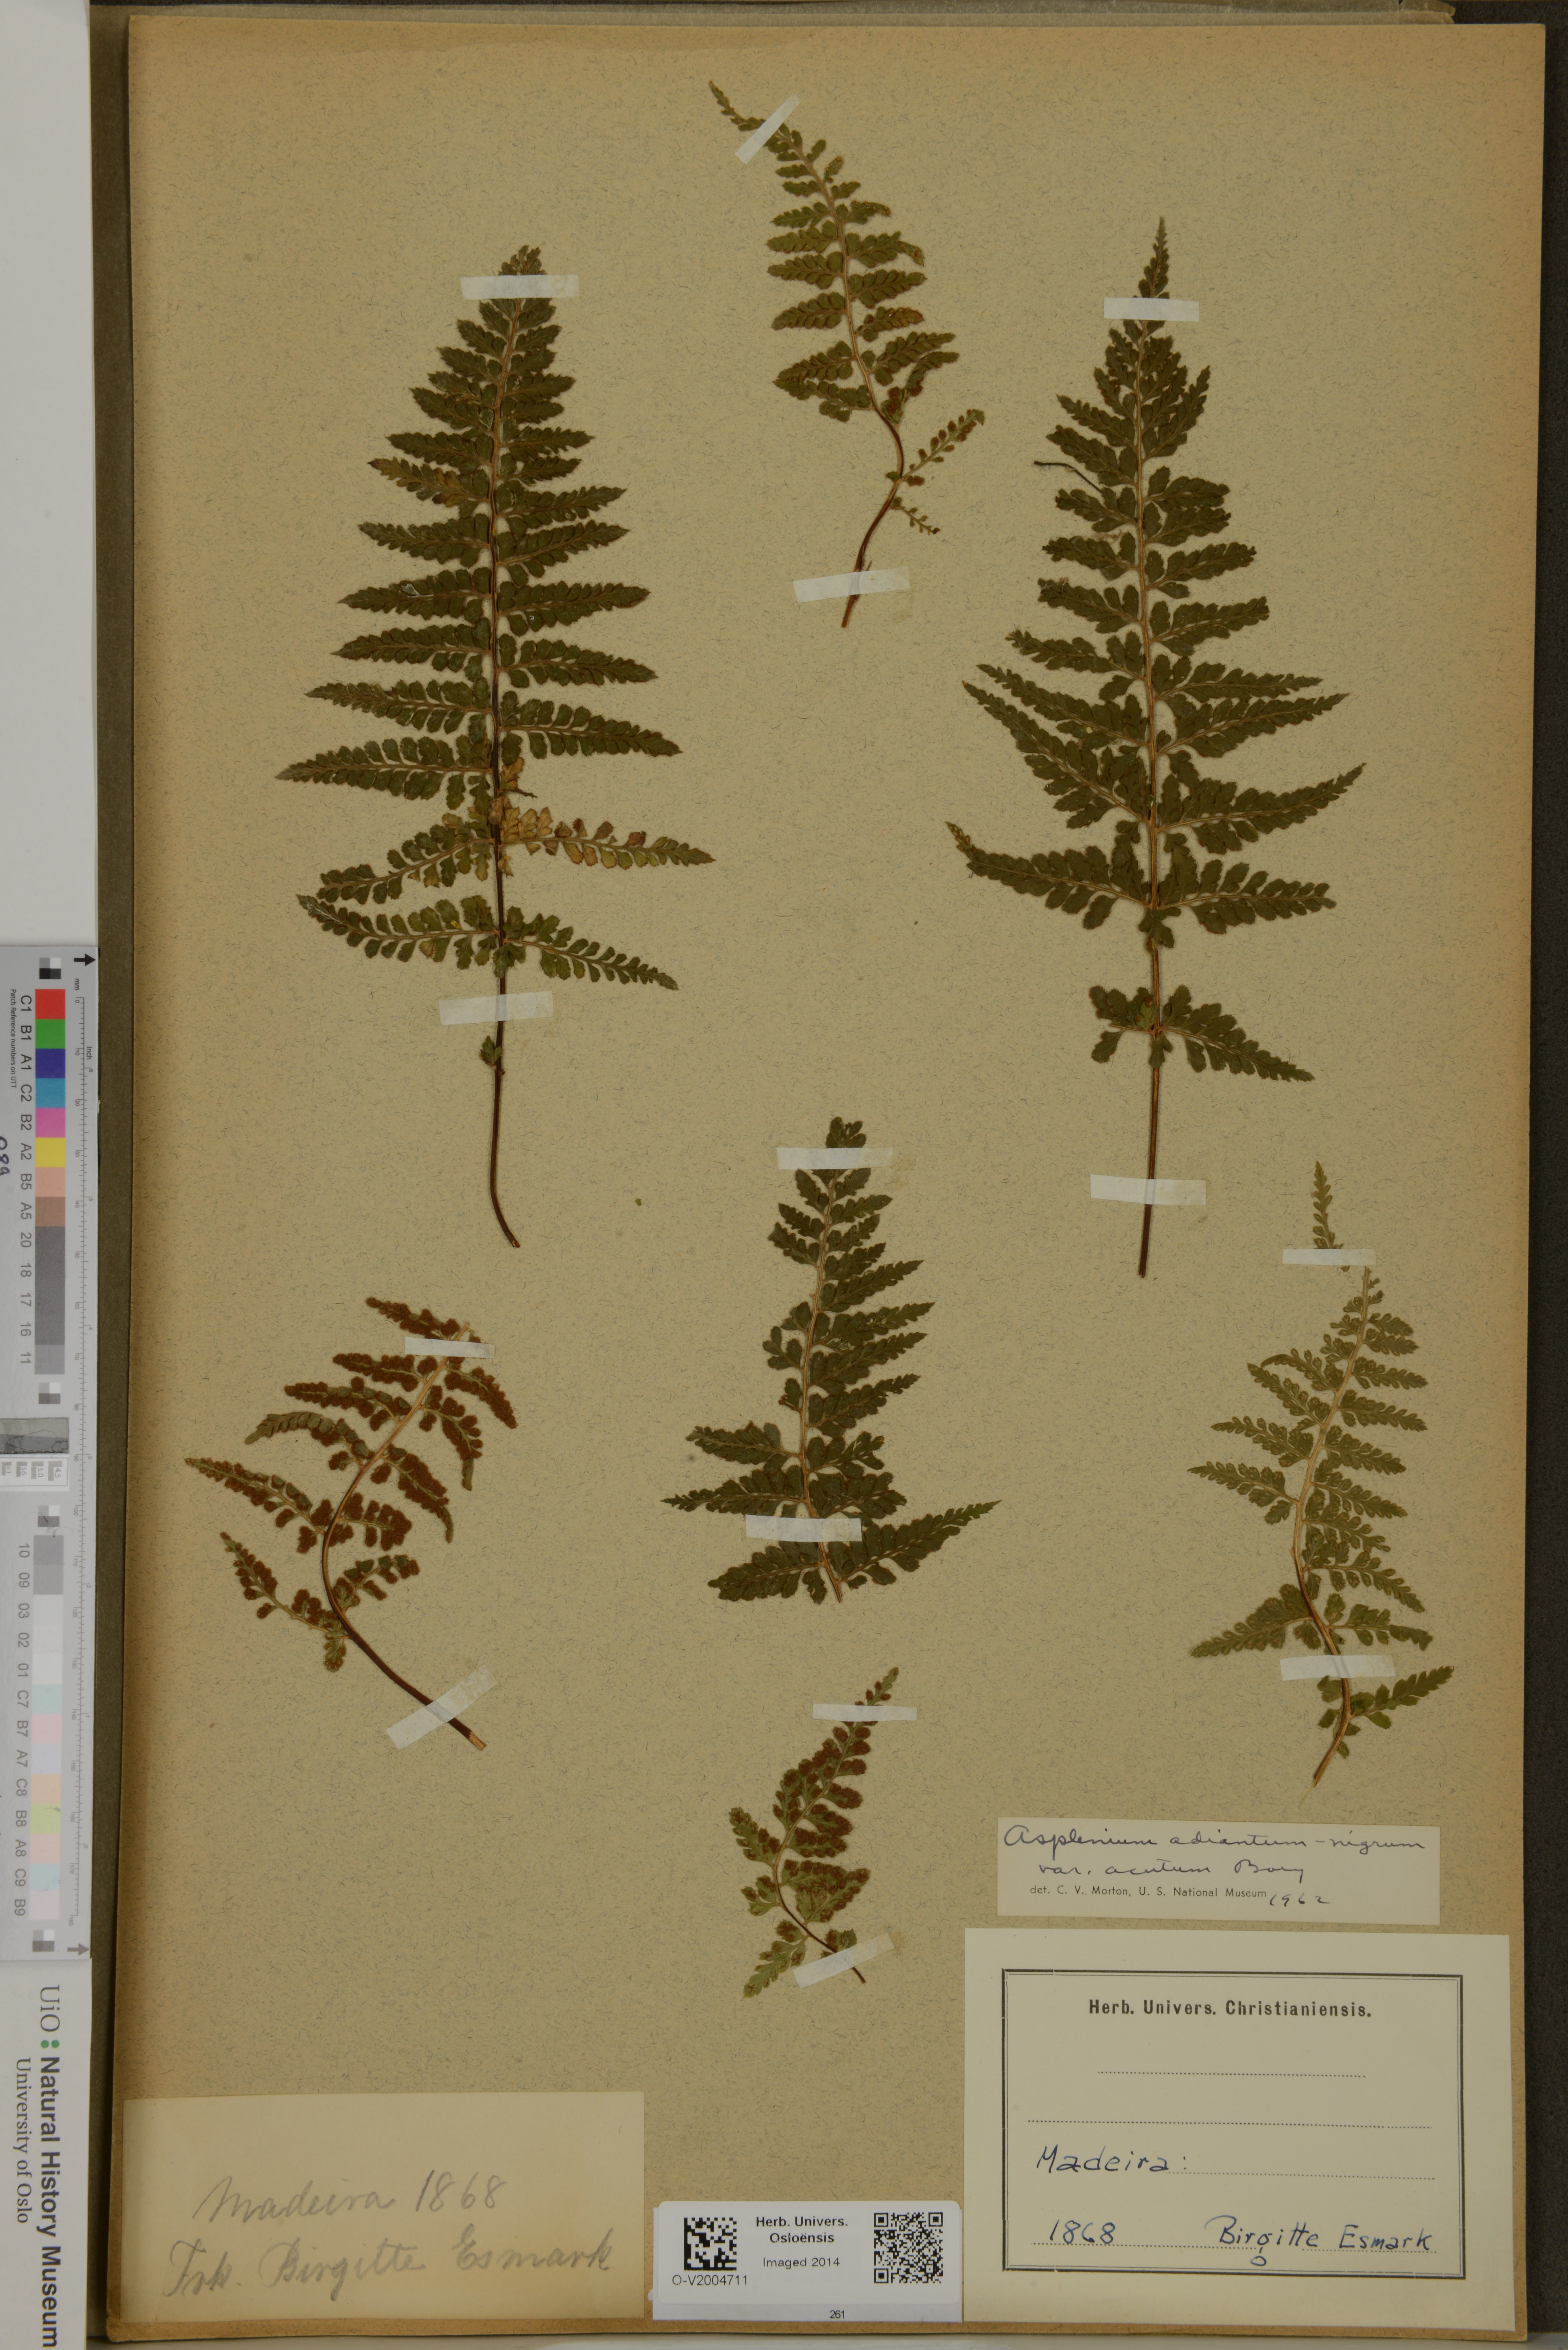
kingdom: Plantae
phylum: Tracheophyta
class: Polypodiopsida
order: Polypodiales
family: Aspleniaceae
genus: Asplenium
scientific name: Asplenium onopteris
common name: Irish spleenwort
